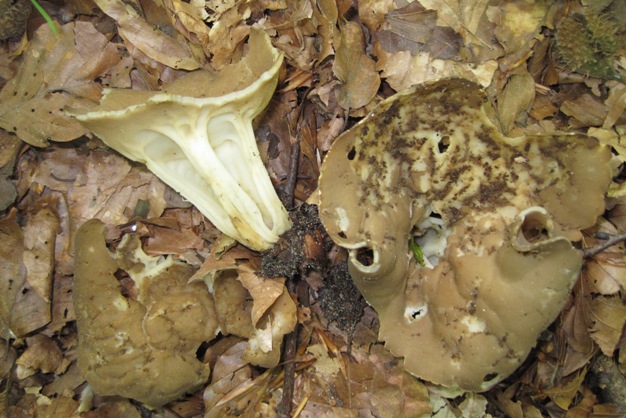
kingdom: Fungi
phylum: Ascomycota
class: Pezizomycetes
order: Pezizales
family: Helvellaceae
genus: Helvella
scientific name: Helvella acetabulum
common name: pokal-foldhat
